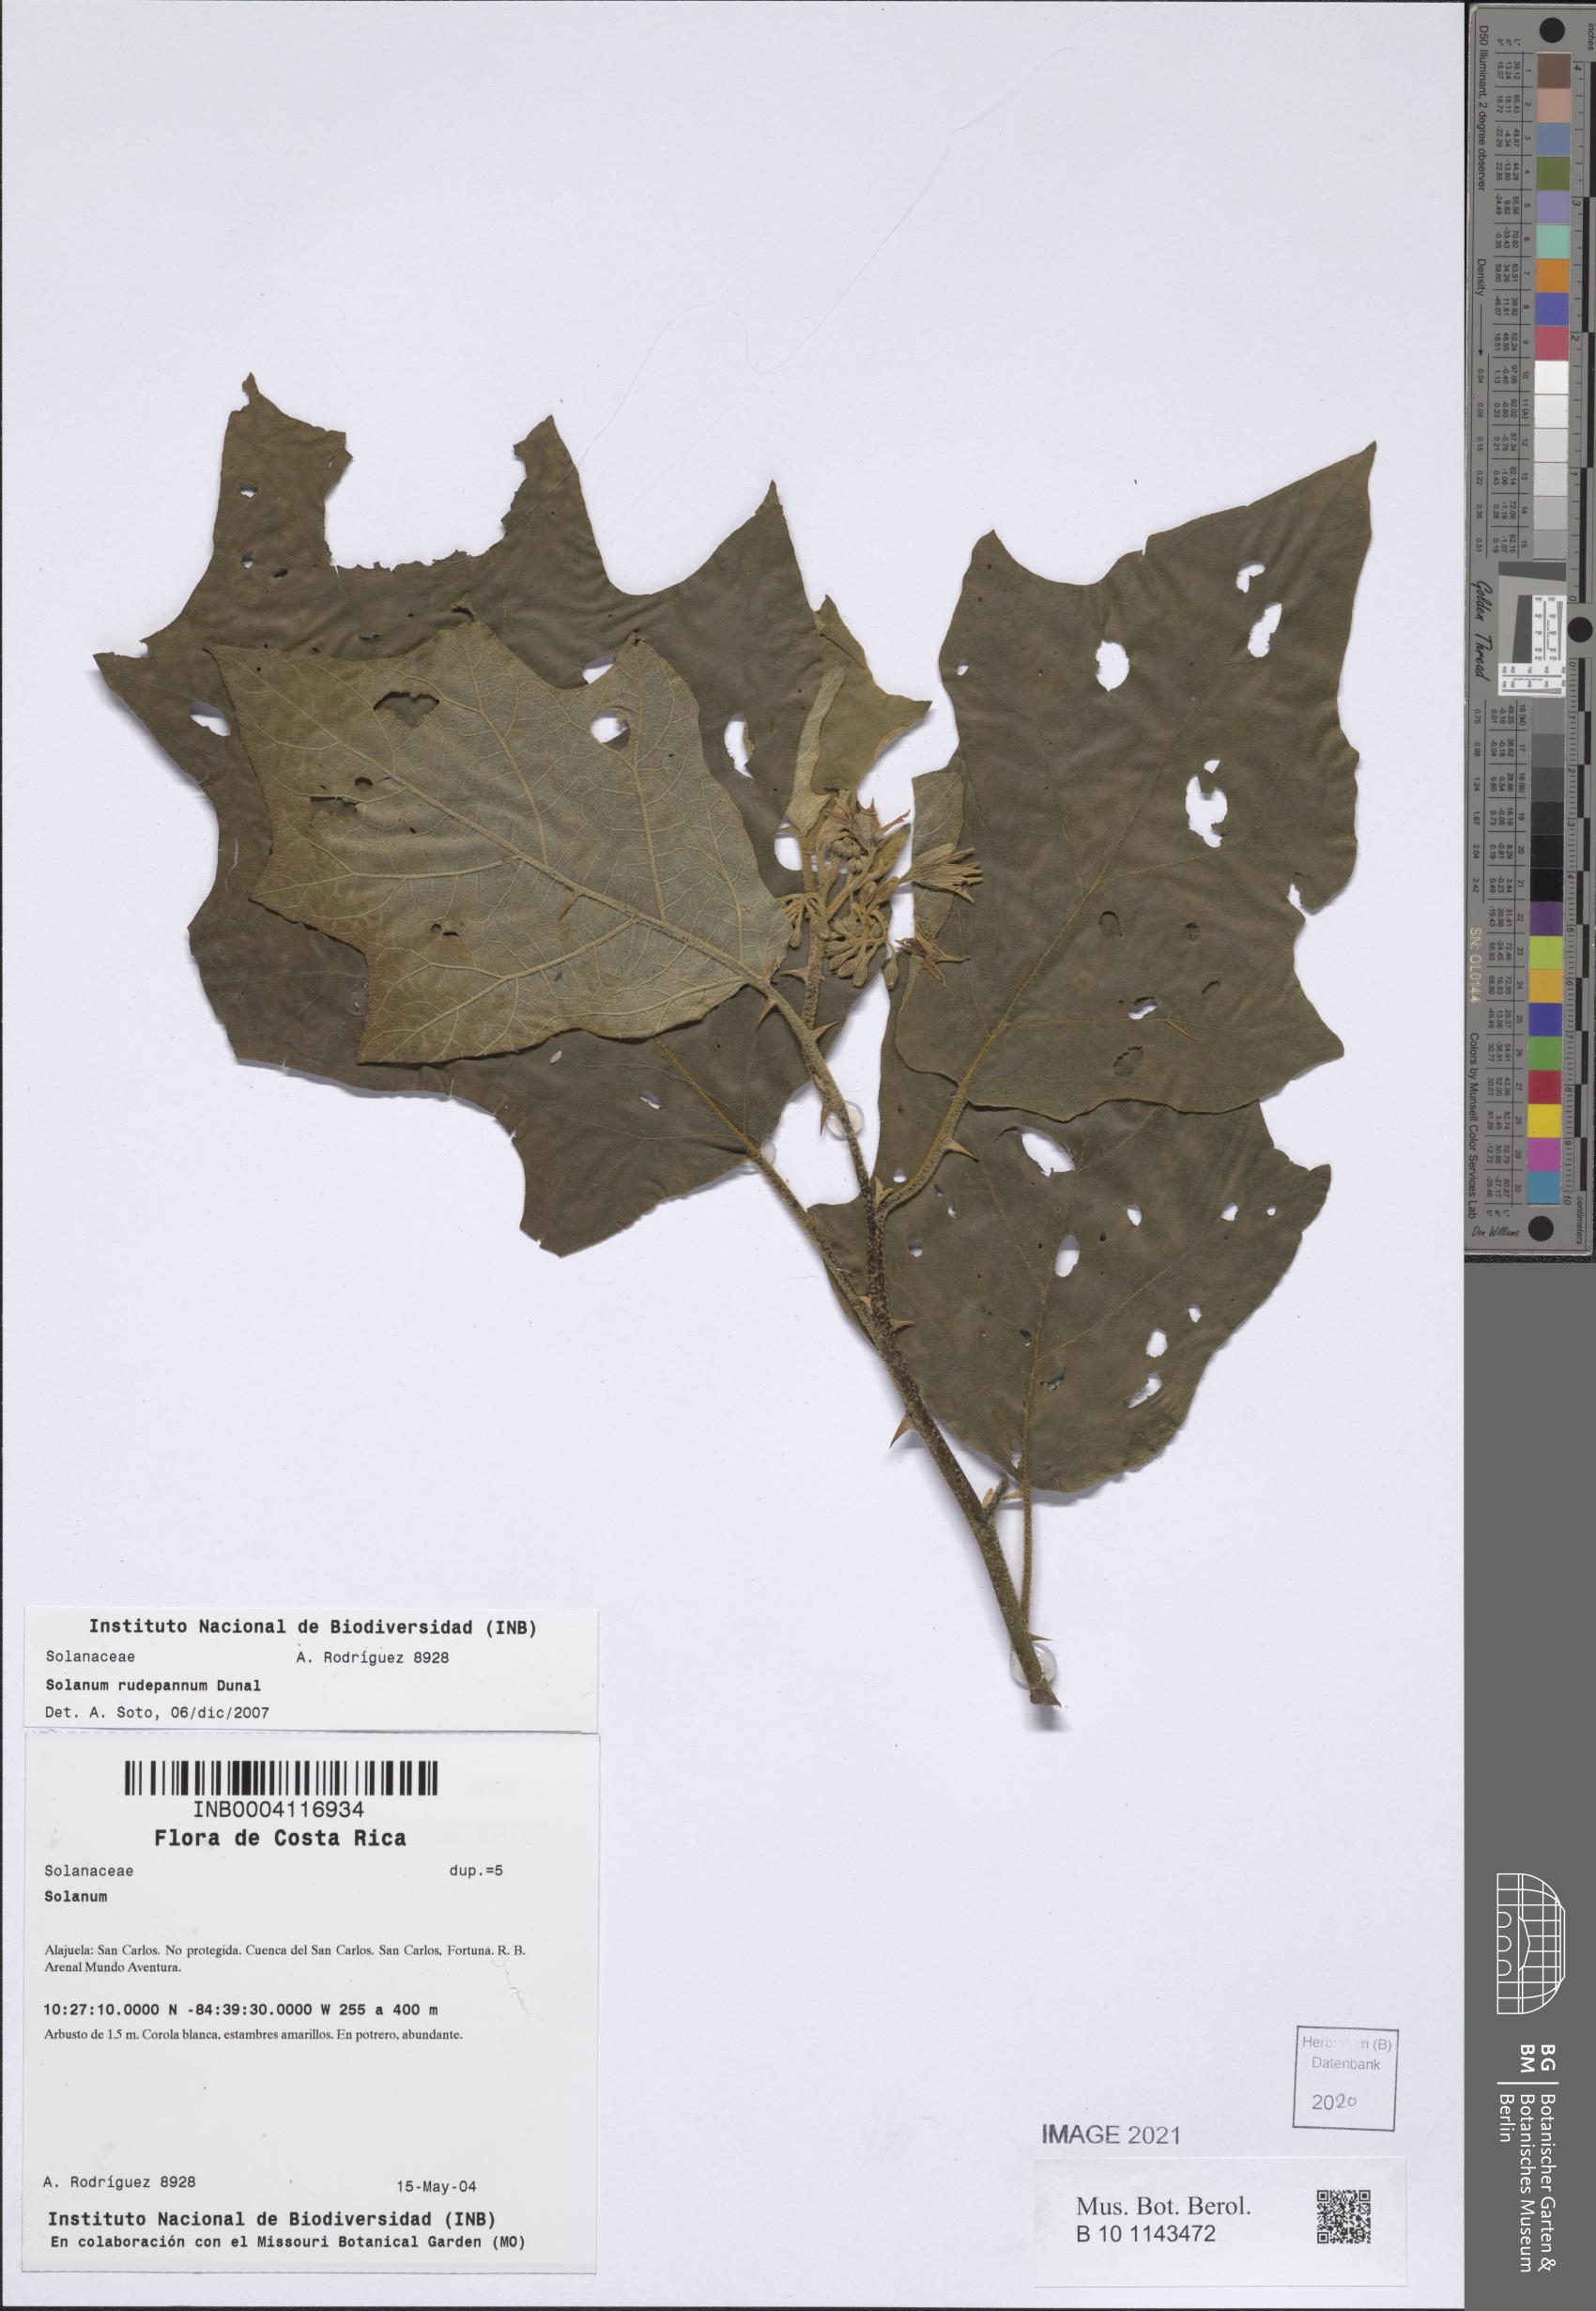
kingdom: Plantae
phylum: Tracheophyta
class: Magnoliopsida
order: Solanales
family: Solanaceae
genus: Solanum
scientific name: Solanum rude-pannum
